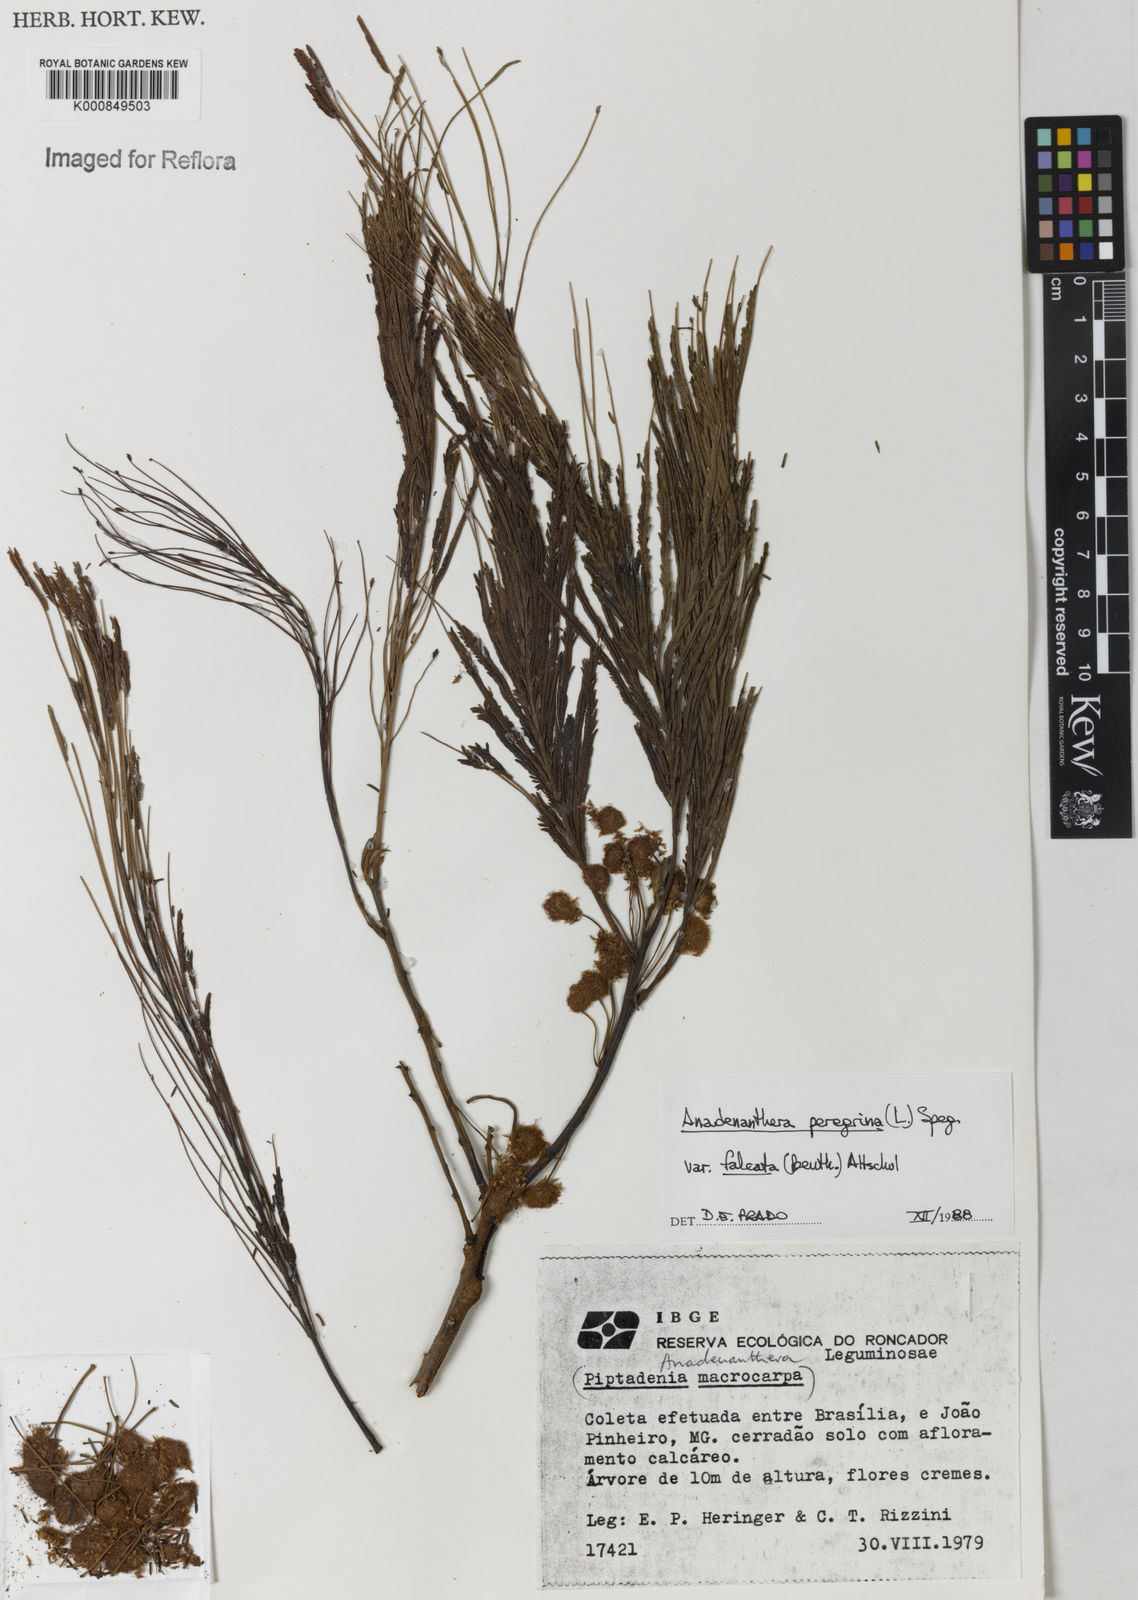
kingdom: Plantae
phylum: Tracheophyta
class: Magnoliopsida
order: Fabales
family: Fabaceae
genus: Anadenanthera
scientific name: Anadenanthera peregrina
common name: Cohoba
